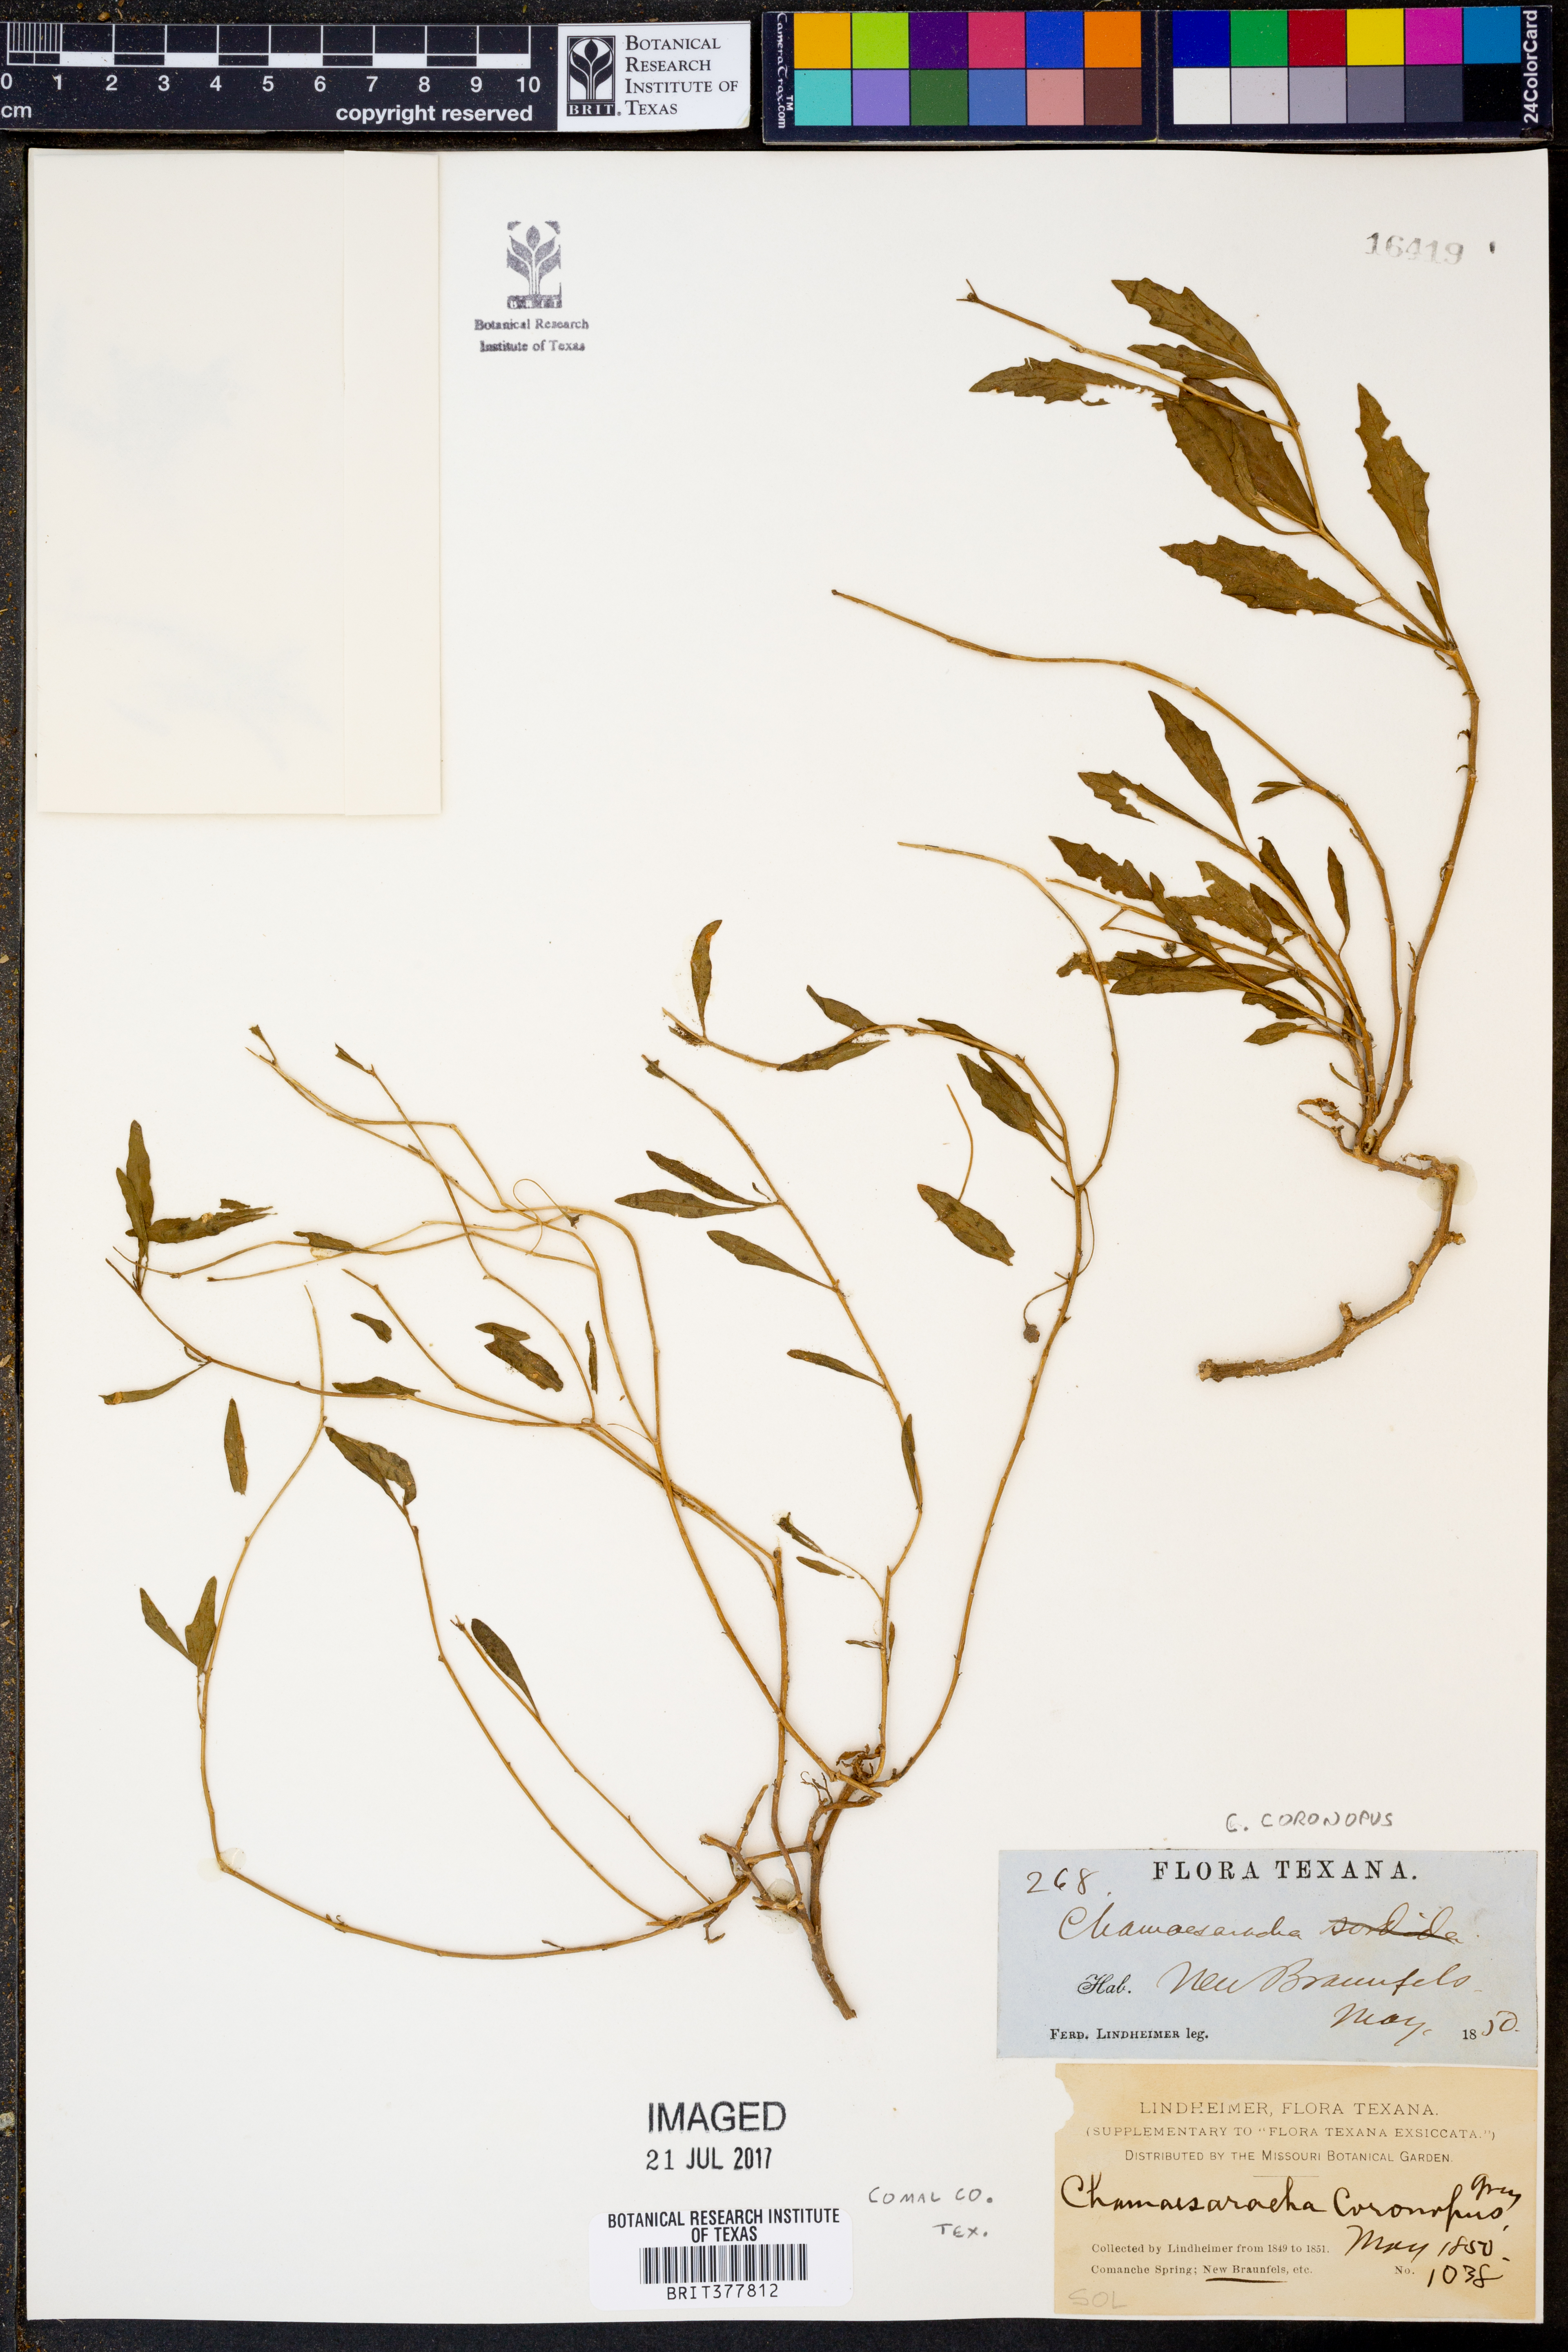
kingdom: Plantae
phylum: Tracheophyta
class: Magnoliopsida
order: Solanales
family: Solanaceae
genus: Chamaesaracha
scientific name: Chamaesaracha coronopus
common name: Smooth chamaesaracha
